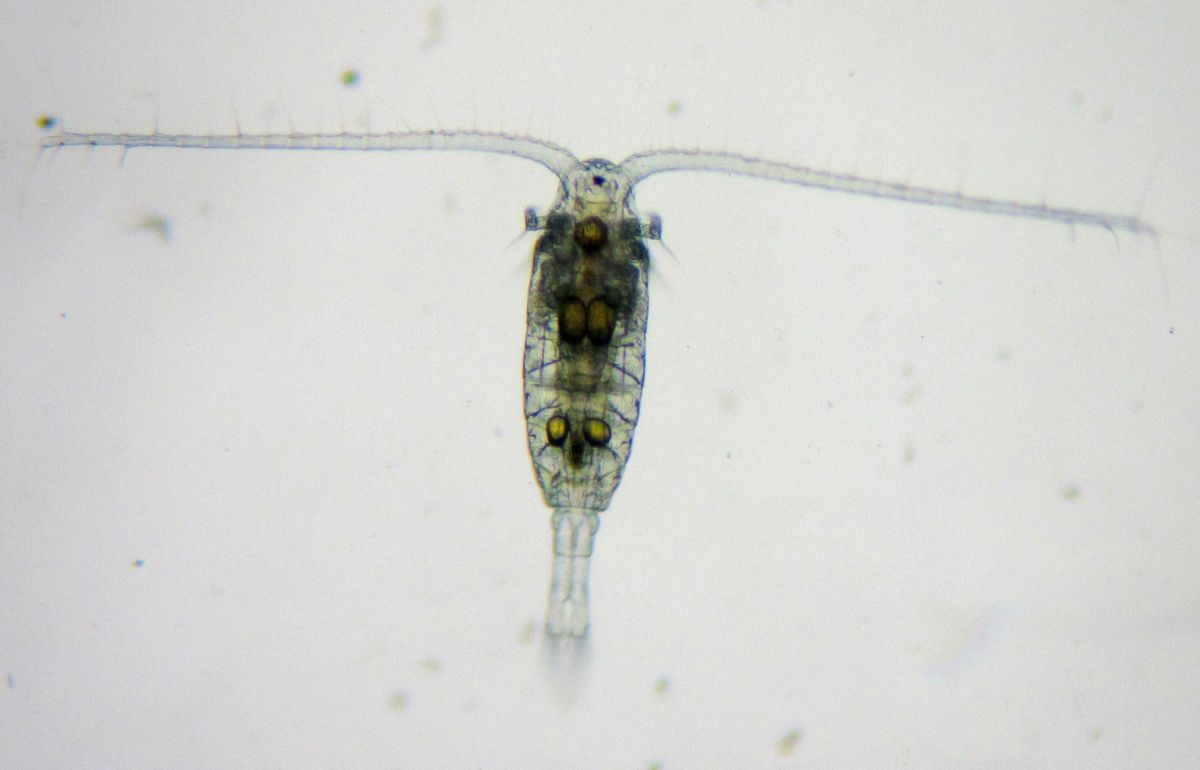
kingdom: Animalia
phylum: Arthropoda
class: Copepoda
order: Calanoida
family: Diaptomidae
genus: Diaptomus
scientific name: Diaptomus zografi
